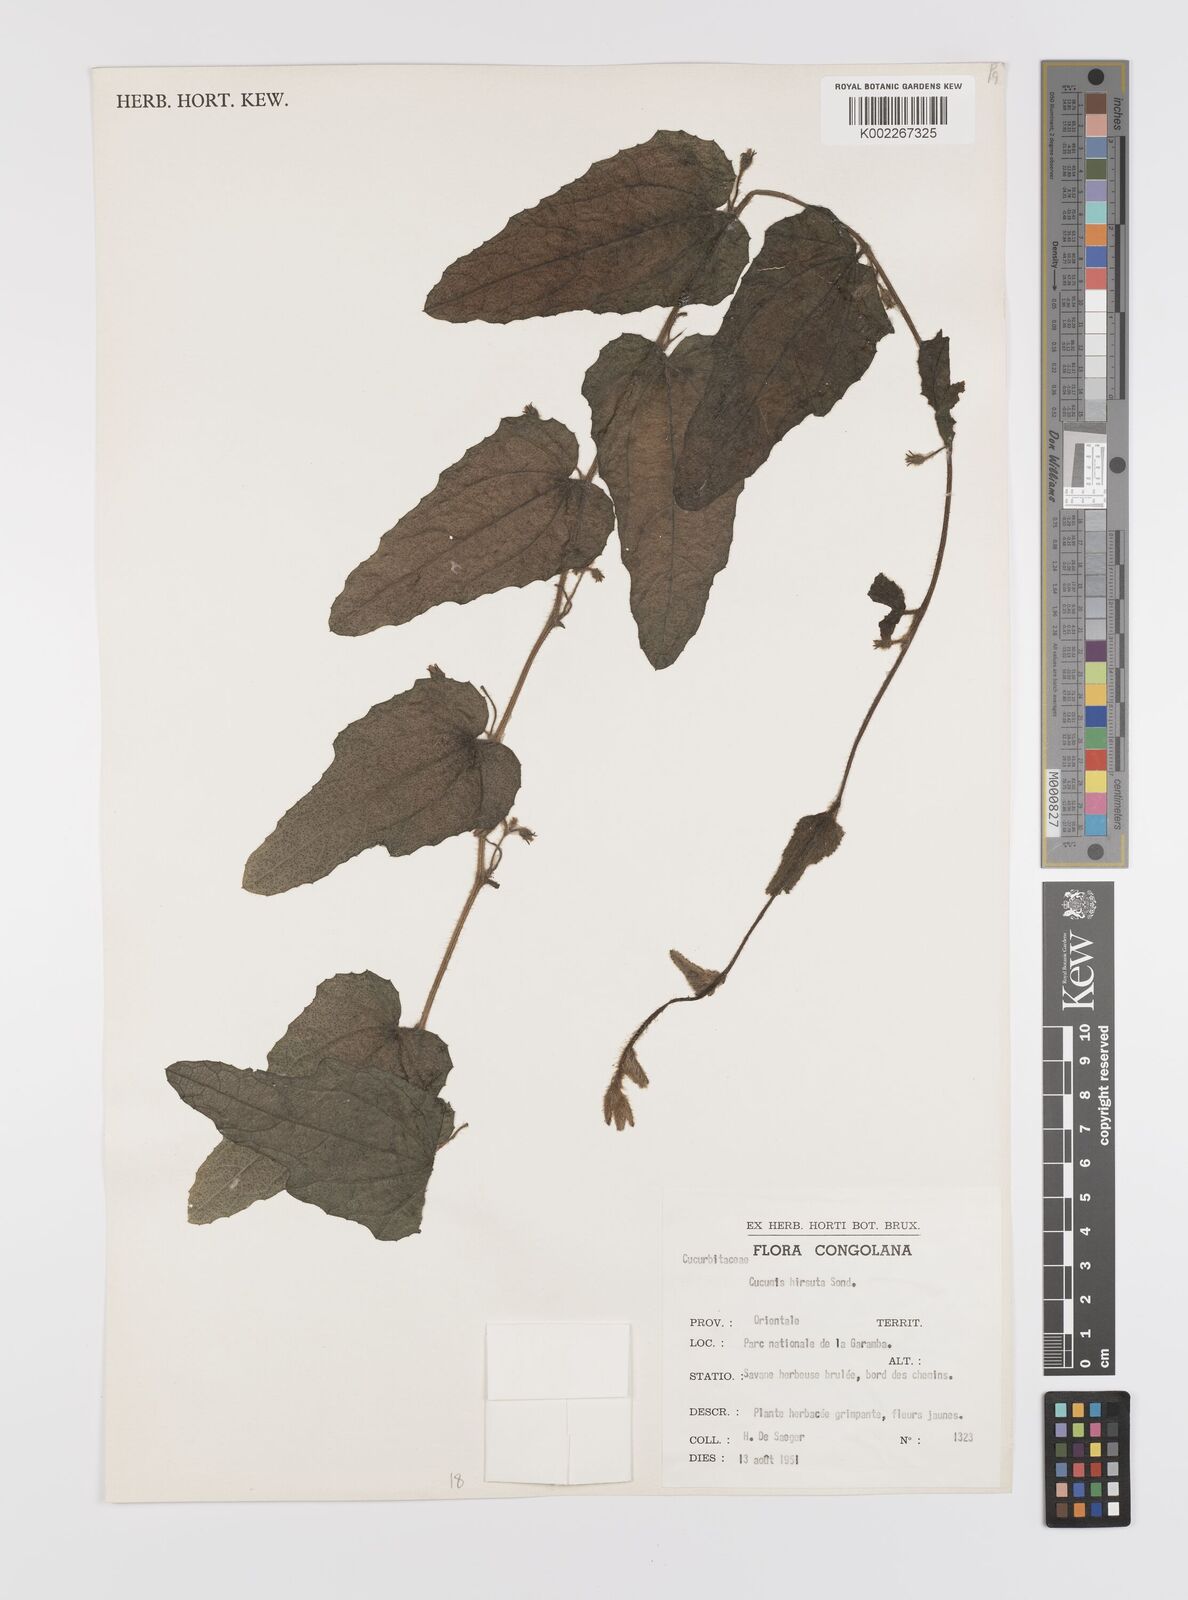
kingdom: Plantae
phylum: Tracheophyta
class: Magnoliopsida
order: Cucurbitales
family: Cucurbitaceae
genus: Cucumis
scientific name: Cucumis hirsutus
